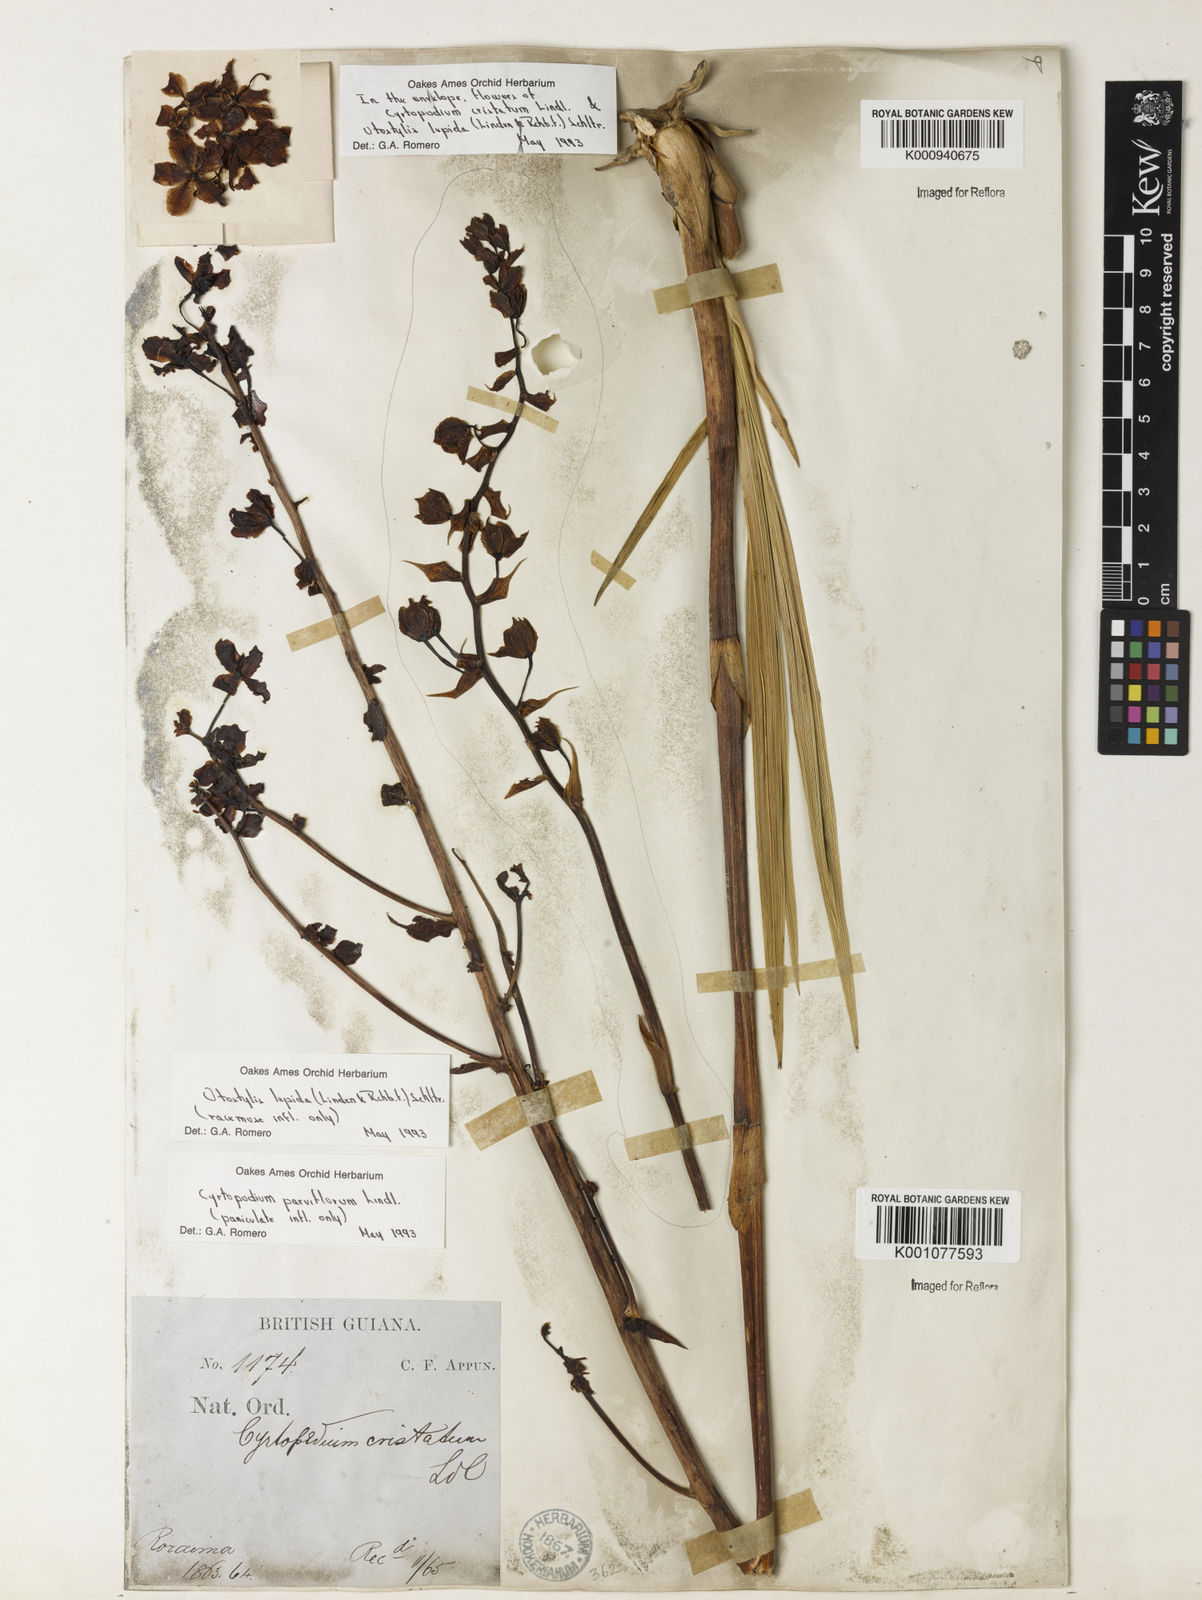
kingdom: Plantae
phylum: Tracheophyta
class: Liliopsida
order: Asparagales
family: Orchidaceae
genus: Cyrtopodium
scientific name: Cyrtopodium cristatum
